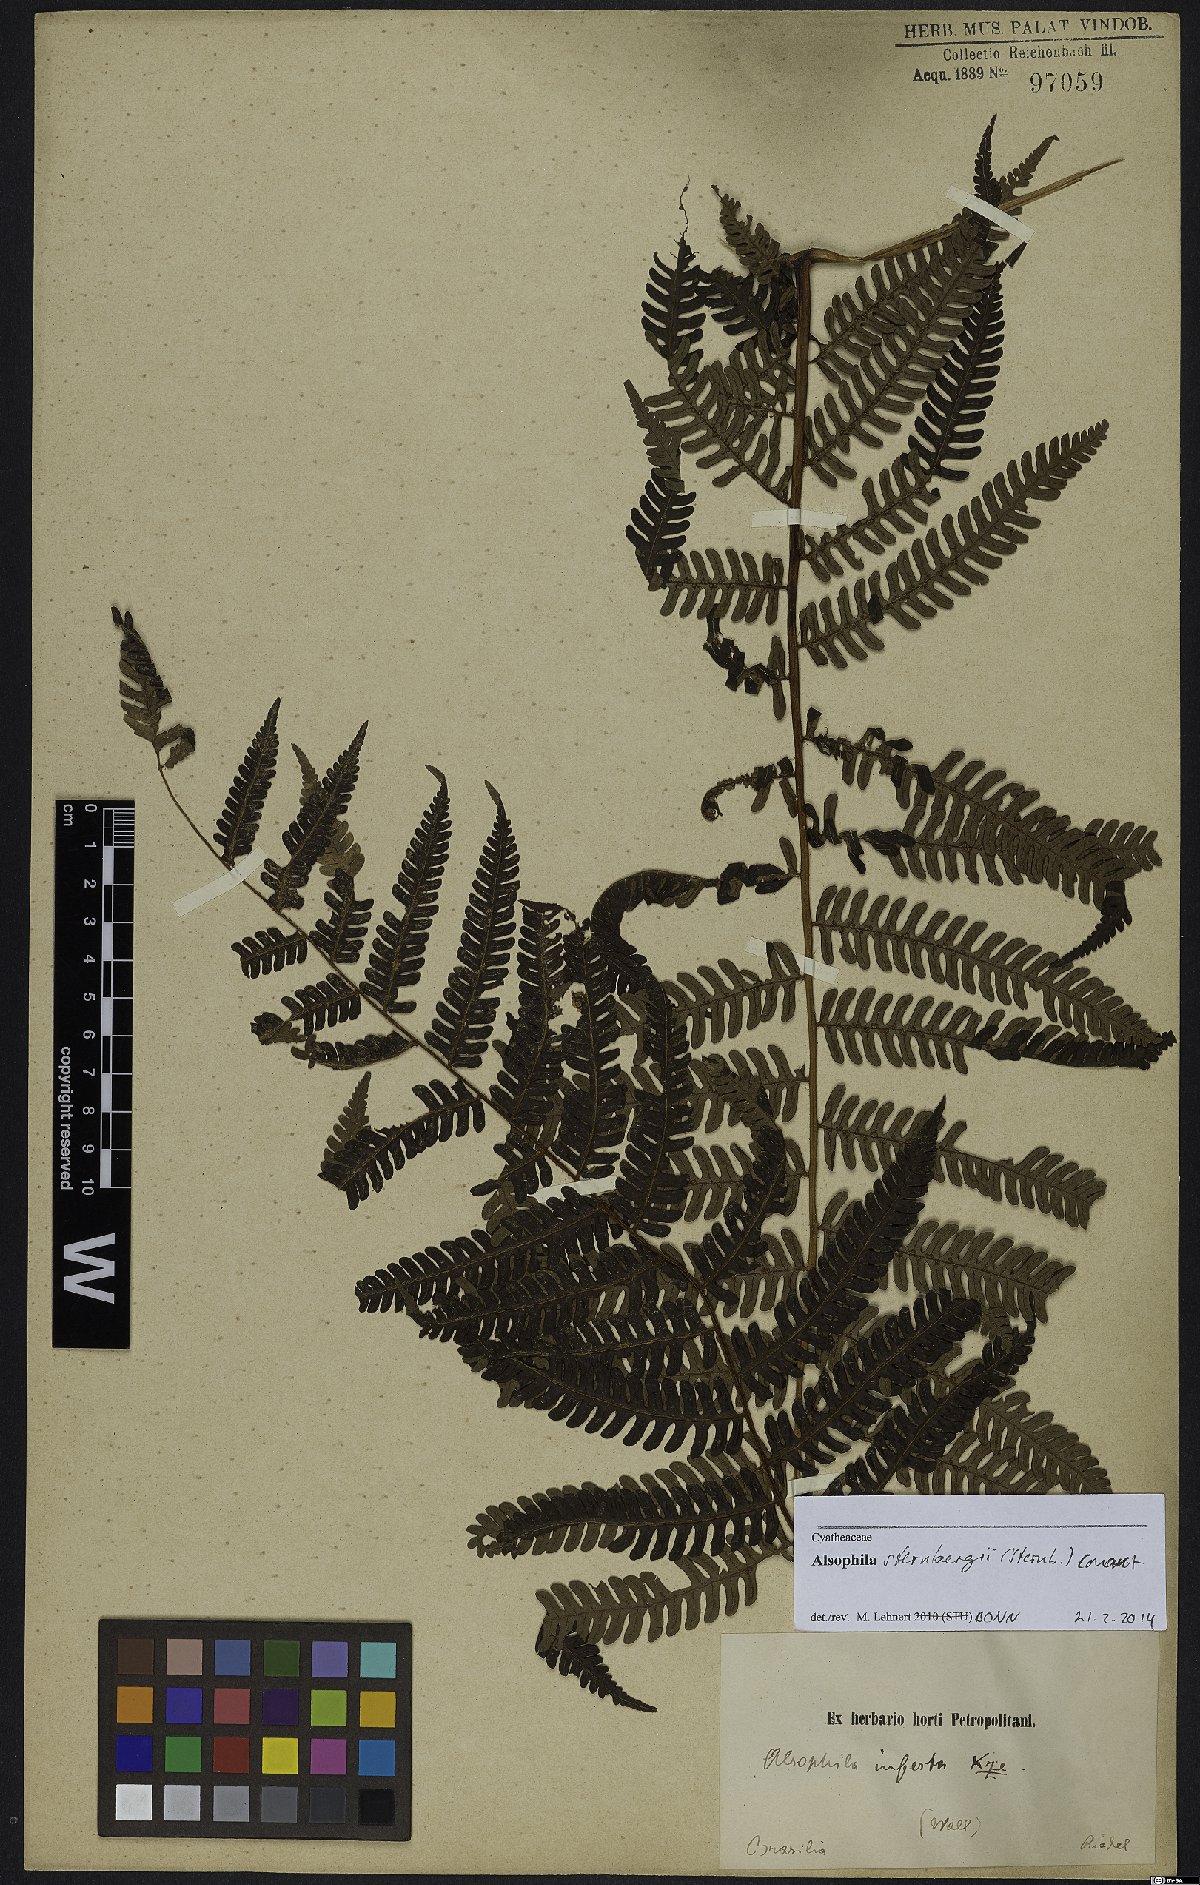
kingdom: Plantae
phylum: Tracheophyta
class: Polypodiopsida
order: Cyatheales
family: Cyatheaceae
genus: Alsophila
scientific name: Alsophila sternbergii
